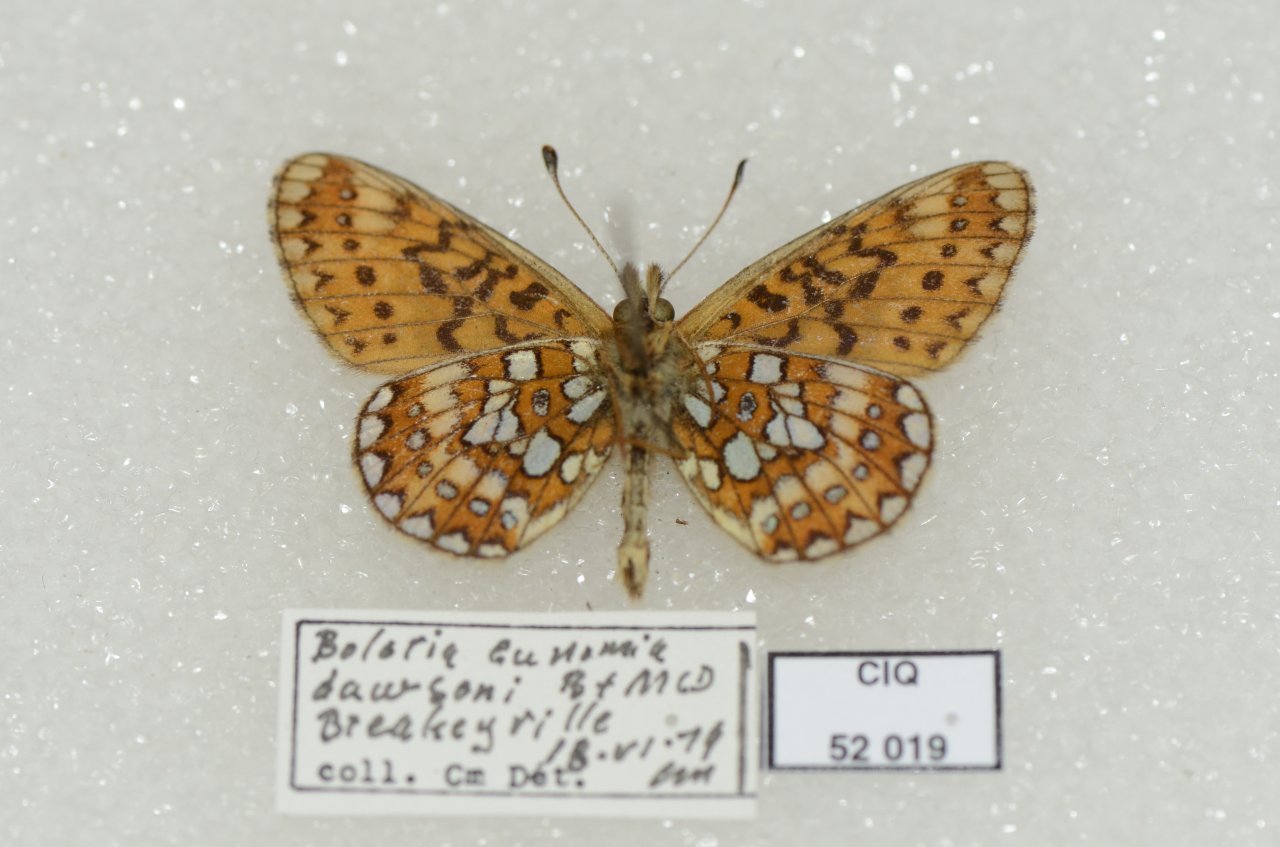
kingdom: Animalia
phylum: Arthropoda
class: Insecta
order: Lepidoptera
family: Nymphalidae
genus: Boloria
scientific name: Boloria eunomia
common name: Bog Fritillary
